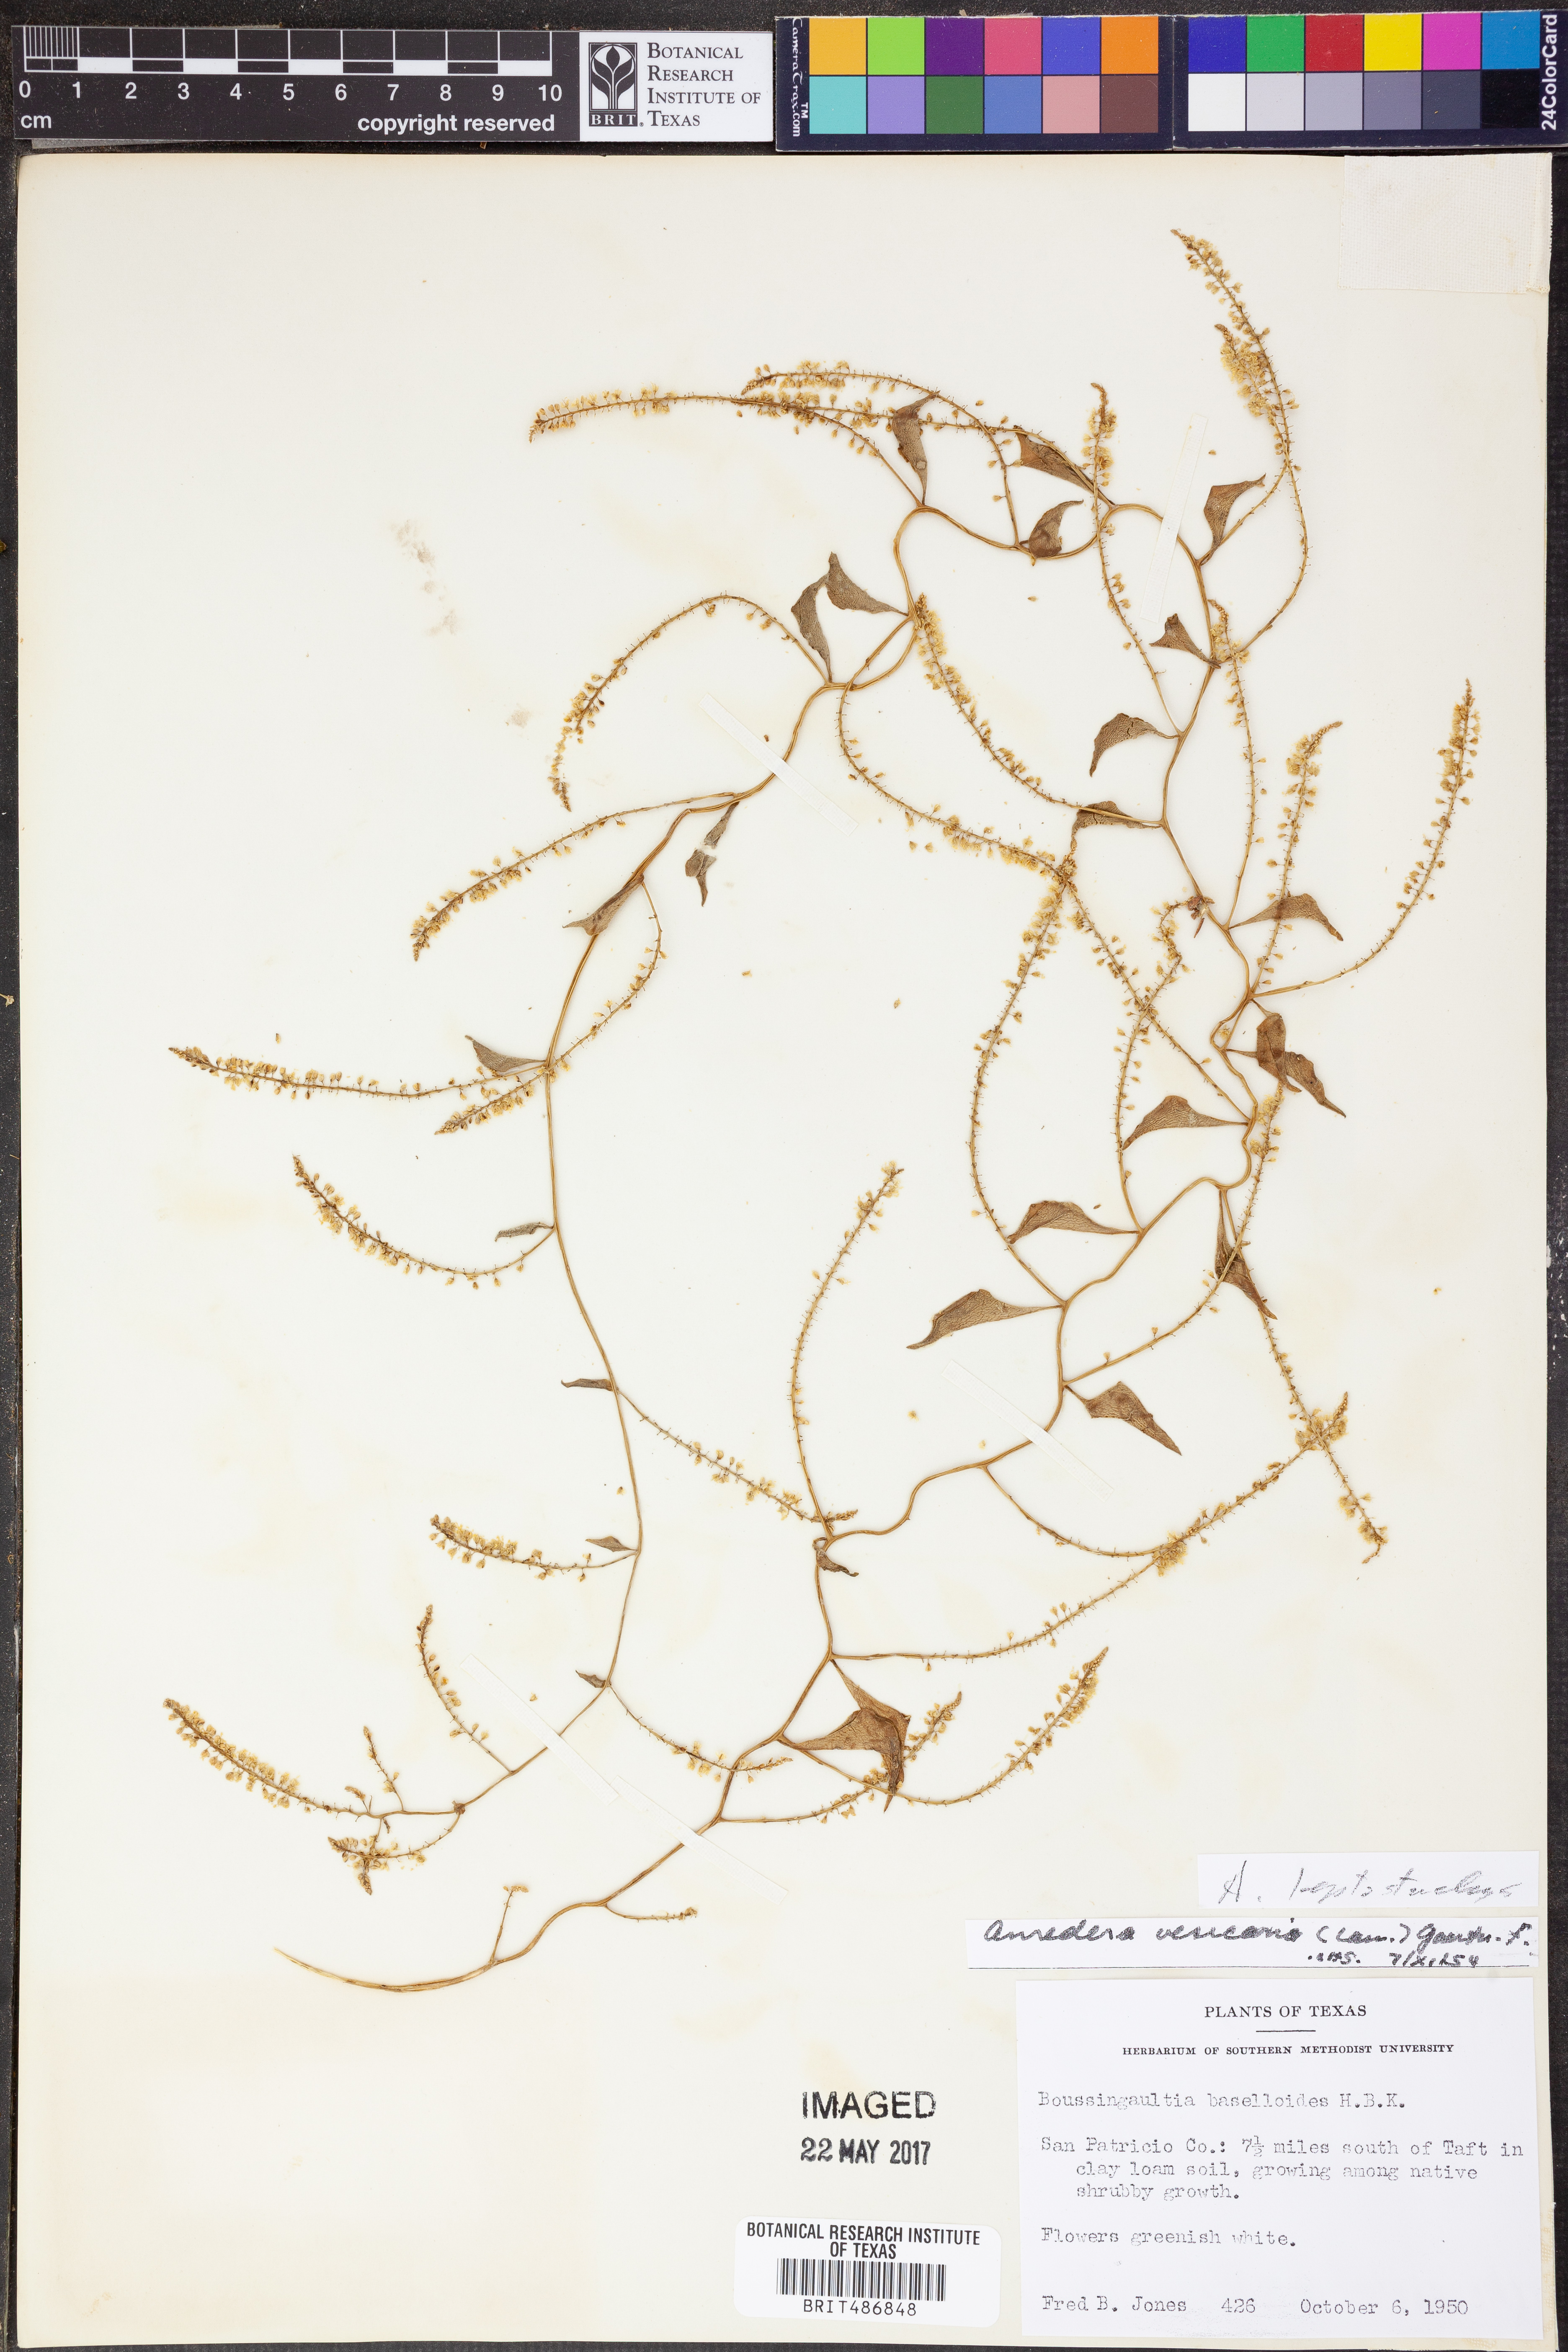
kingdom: Plantae
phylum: Tracheophyta
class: Magnoliopsida
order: Caryophyllales
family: Basellaceae
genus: Anredera
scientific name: Anredera baselloides
